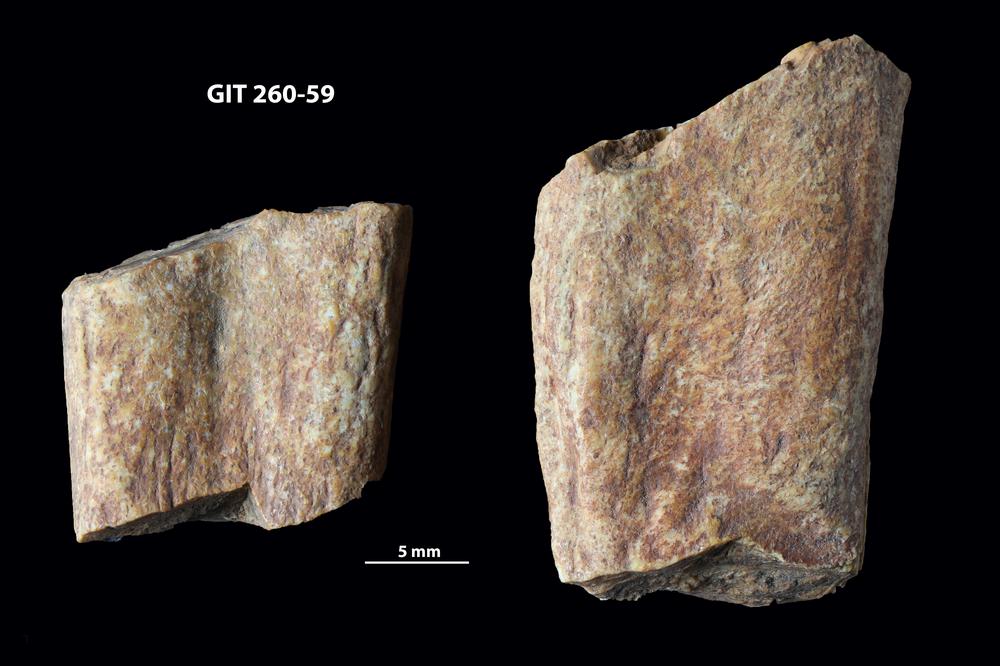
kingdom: Animalia
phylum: Chordata
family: Homostiidae
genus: Homostius
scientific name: Homostius
